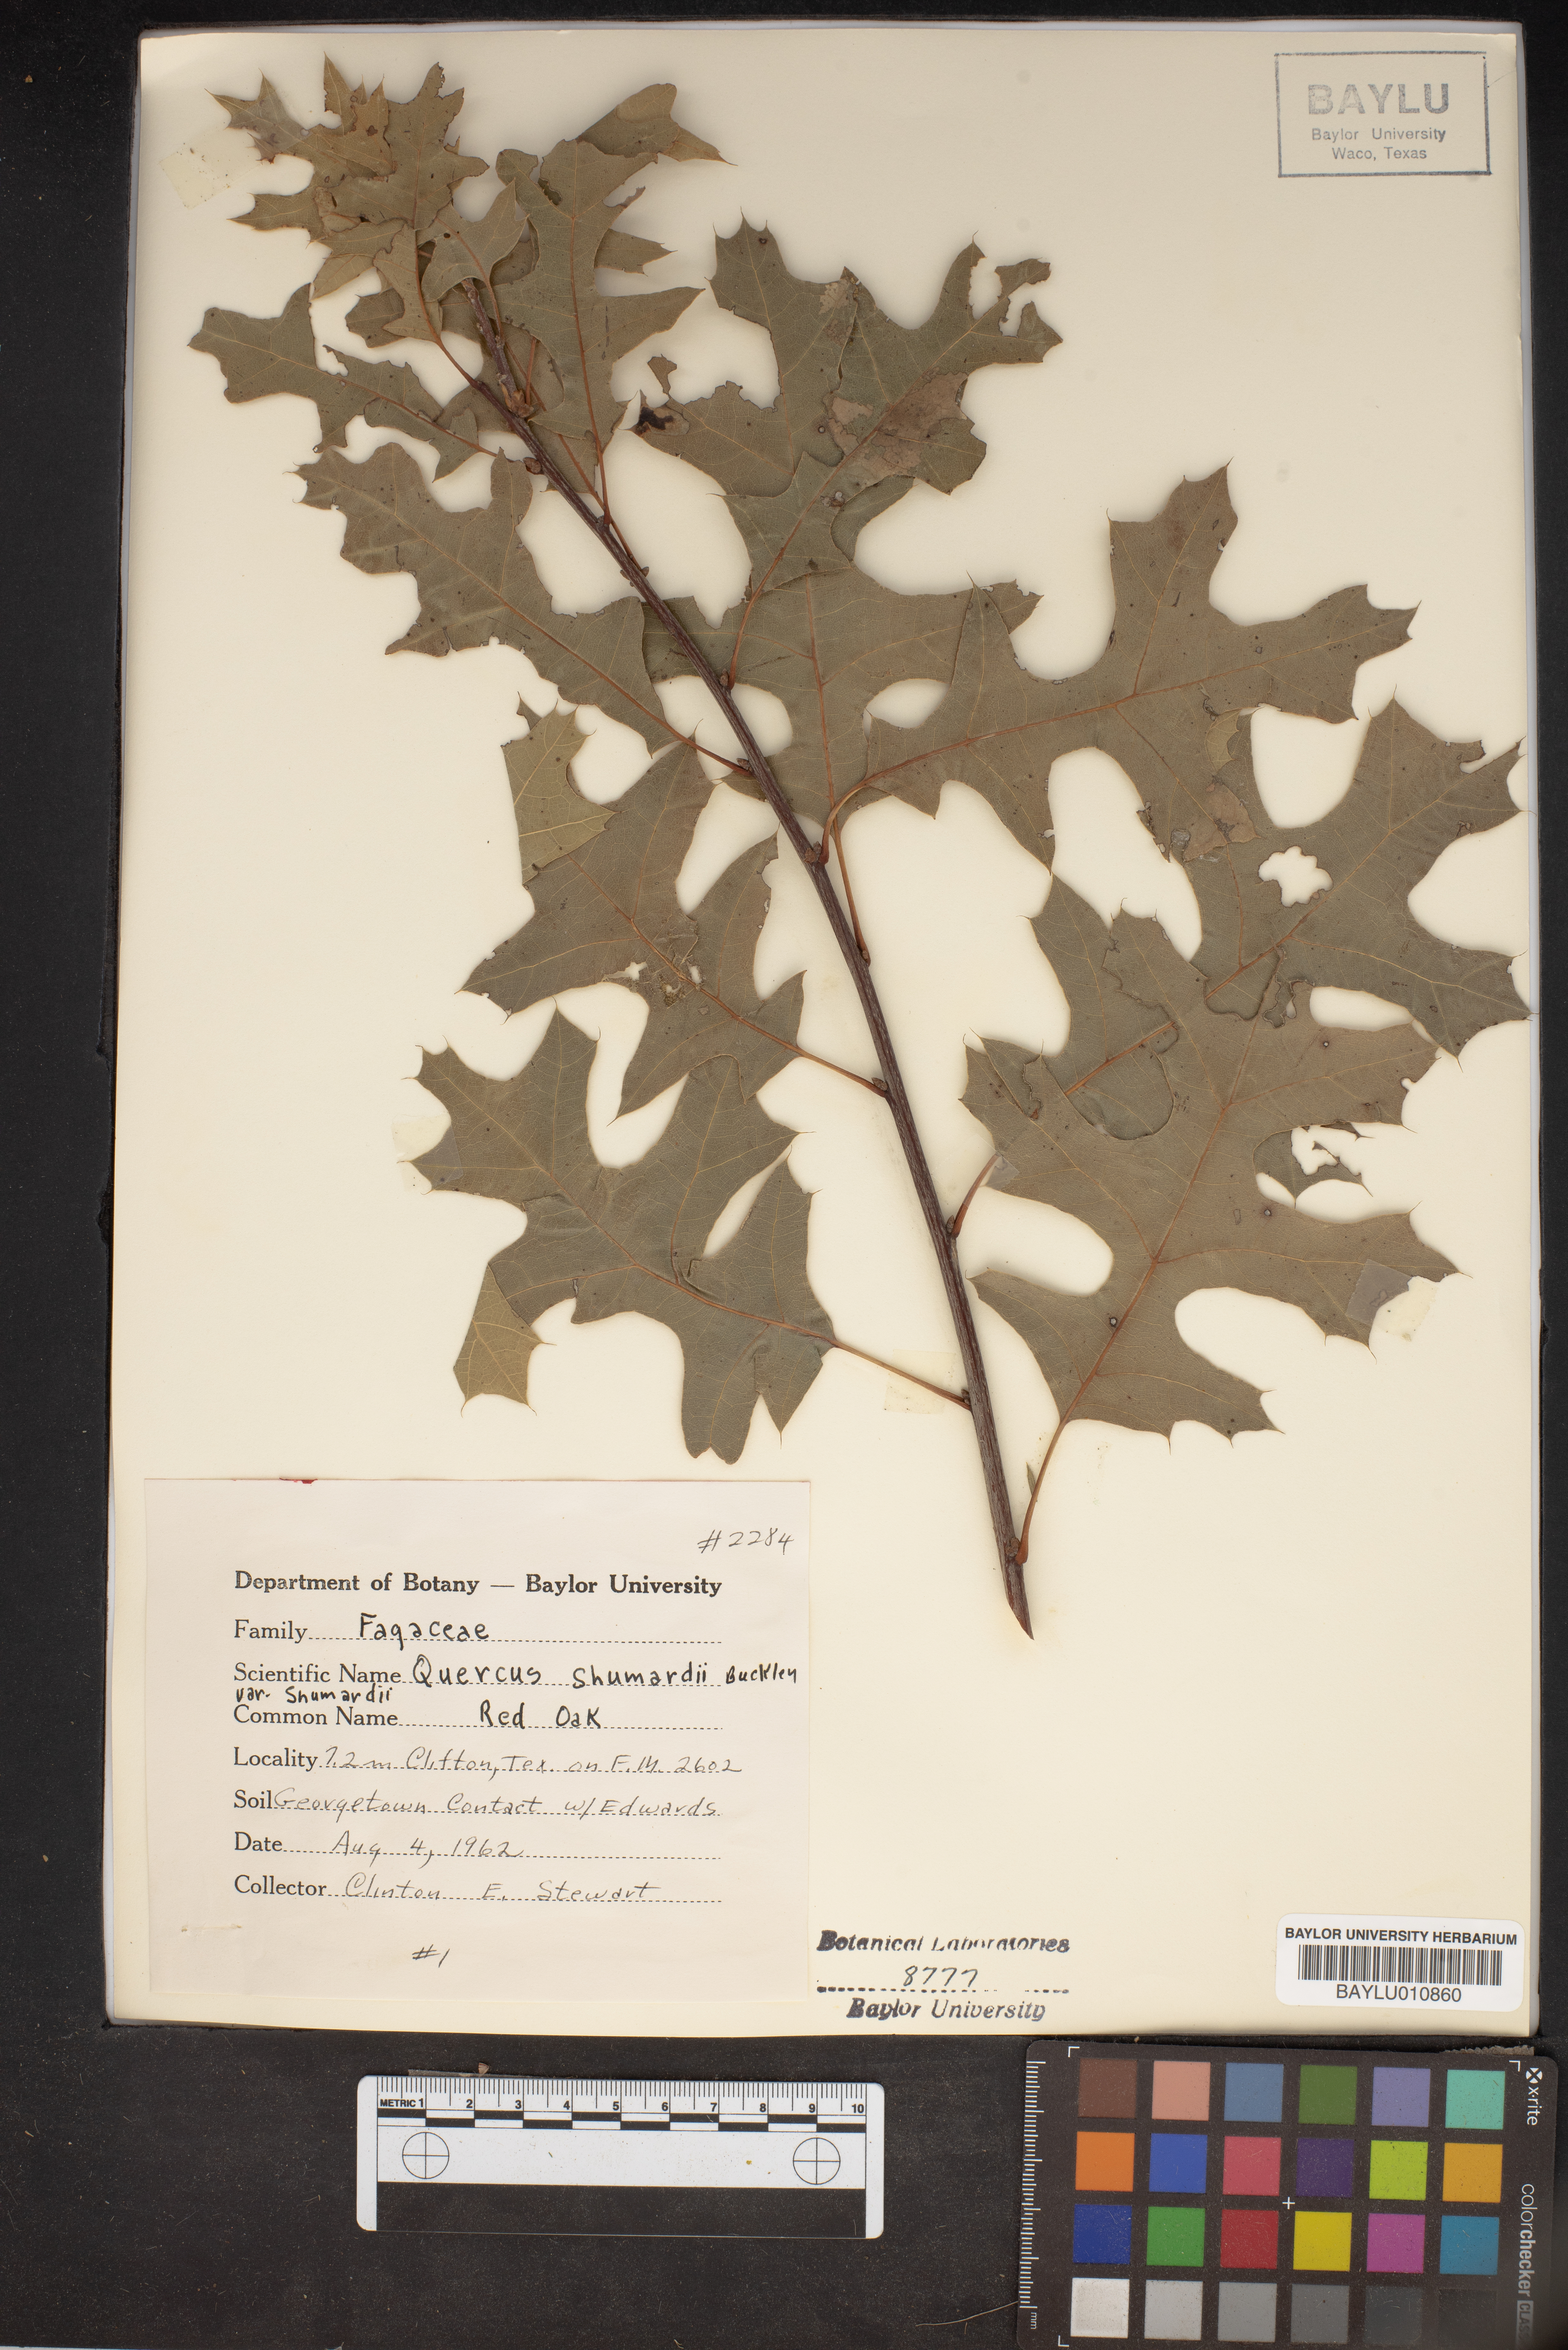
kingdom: Plantae
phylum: Tracheophyta
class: Magnoliopsida
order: Fagales
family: Fagaceae
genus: Quercus
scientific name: Quercus shumardii
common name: Shumard oak
